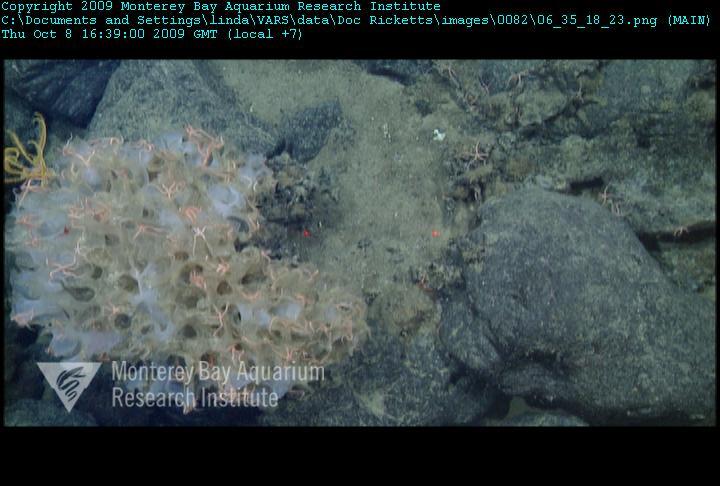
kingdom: Animalia
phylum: Porifera
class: Hexactinellida
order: Sceptrulophora
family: Farreidae
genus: Farrea
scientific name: Farrea
